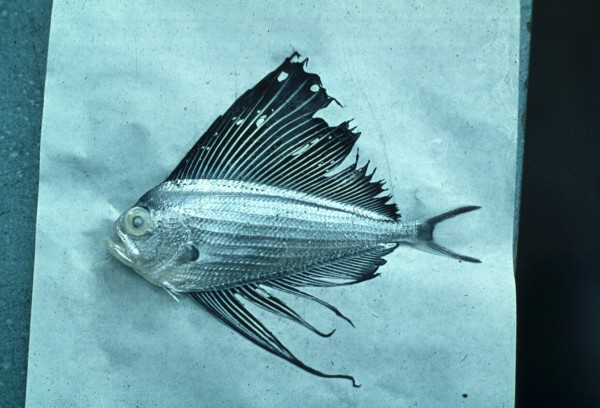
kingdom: Animalia
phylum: Chordata
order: Perciformes
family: Bramidae
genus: Pterycombus
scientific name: Pterycombus petersii
